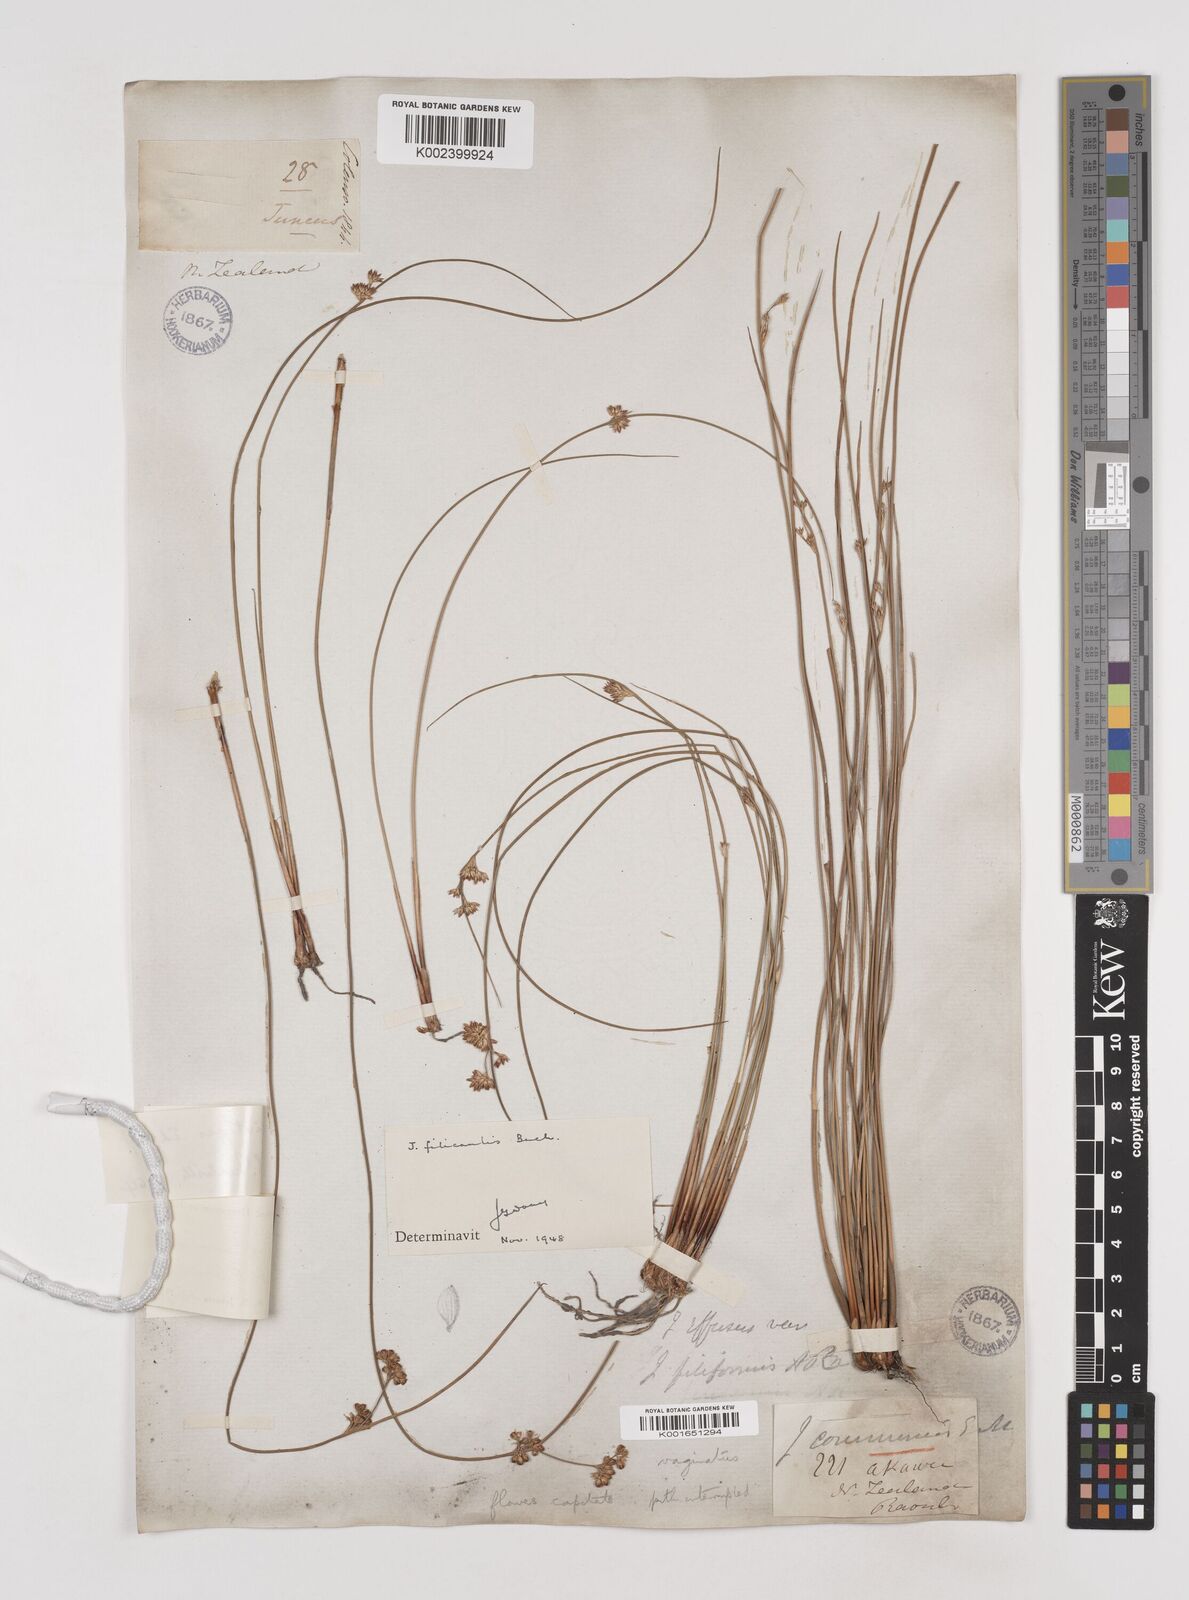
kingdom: Plantae
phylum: Tracheophyta
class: Liliopsida
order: Poales
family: Juncaceae
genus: Juncus
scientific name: Juncus distegus
